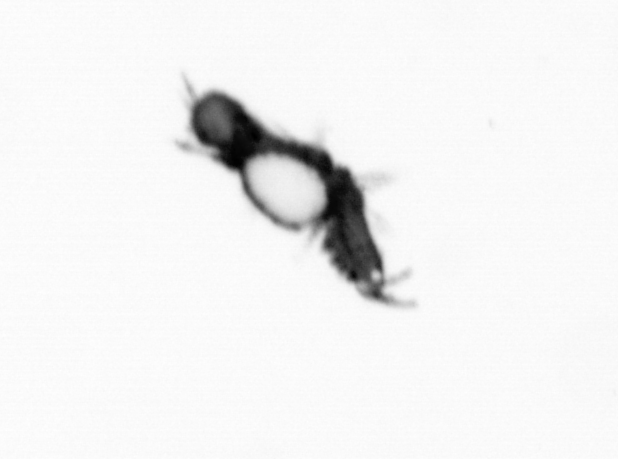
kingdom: Animalia
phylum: Annelida
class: Polychaeta
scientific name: Polychaeta
